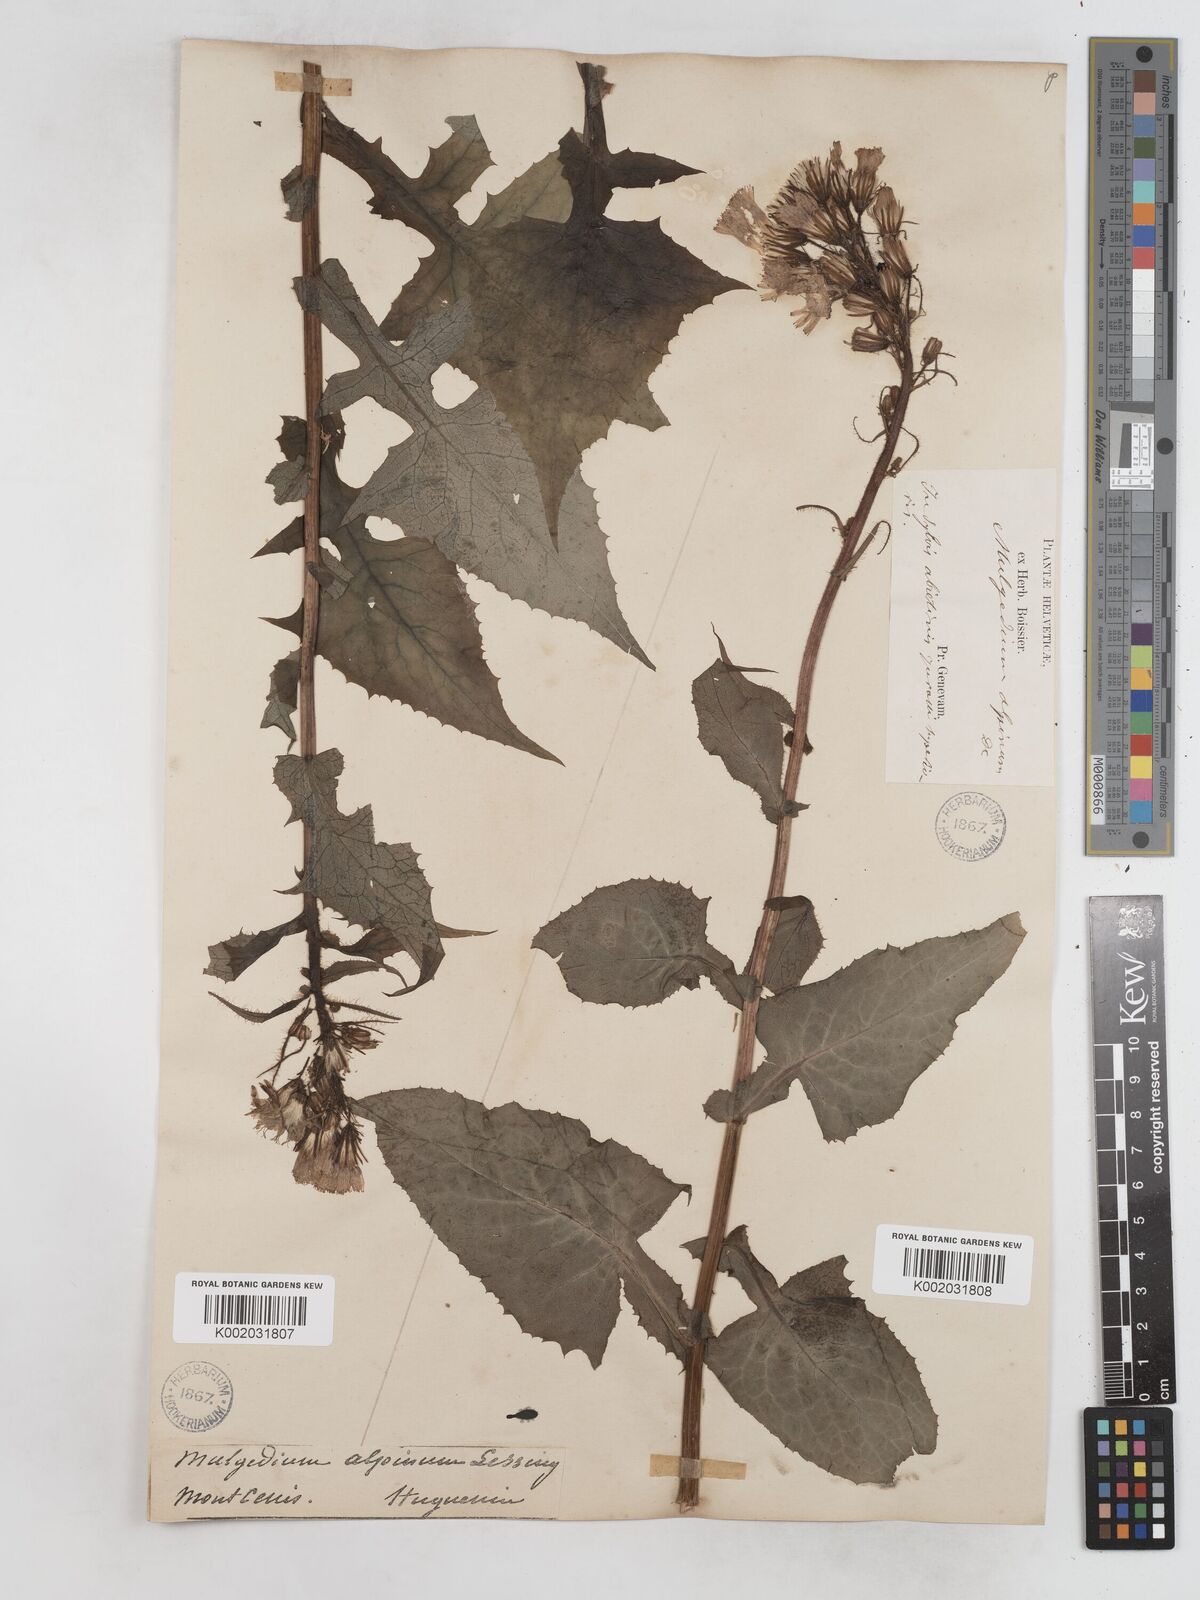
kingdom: Plantae
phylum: Tracheophyta
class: Magnoliopsida
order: Asterales
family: Asteraceae
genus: Cicerbita
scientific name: Cicerbita alpina
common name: Alpine blue-sow-thistle
